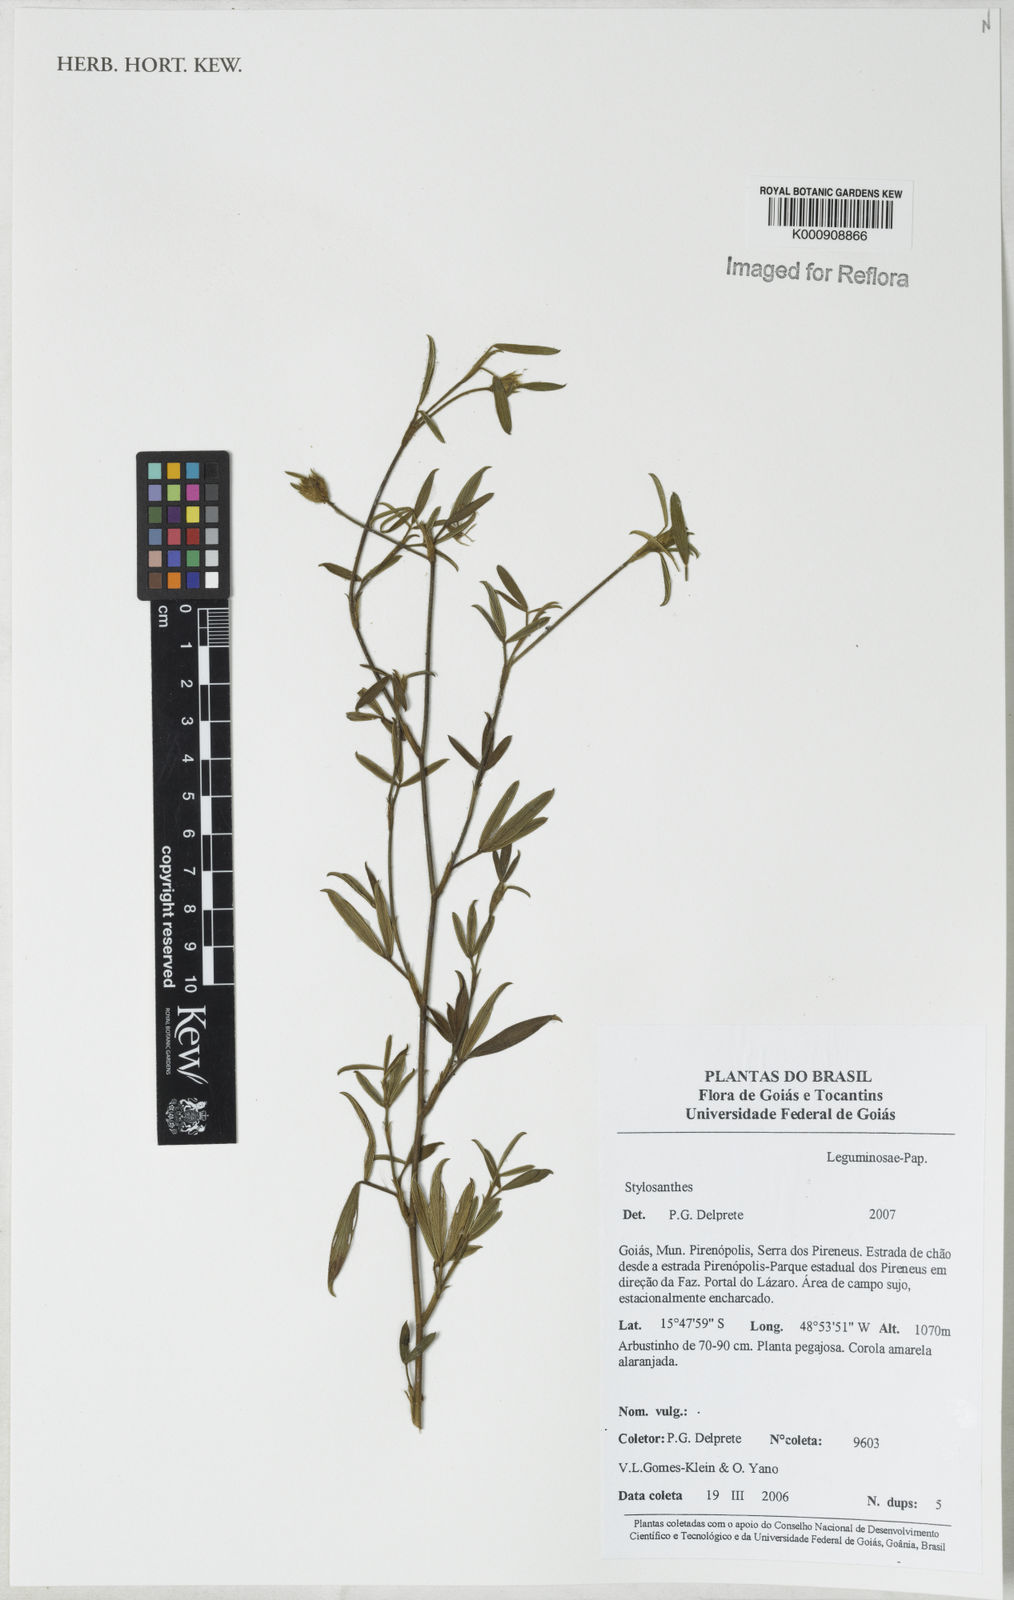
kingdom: Plantae
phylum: Tracheophyta
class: Magnoliopsida
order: Fabales
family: Fabaceae
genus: Stylosanthes
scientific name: Stylosanthes
